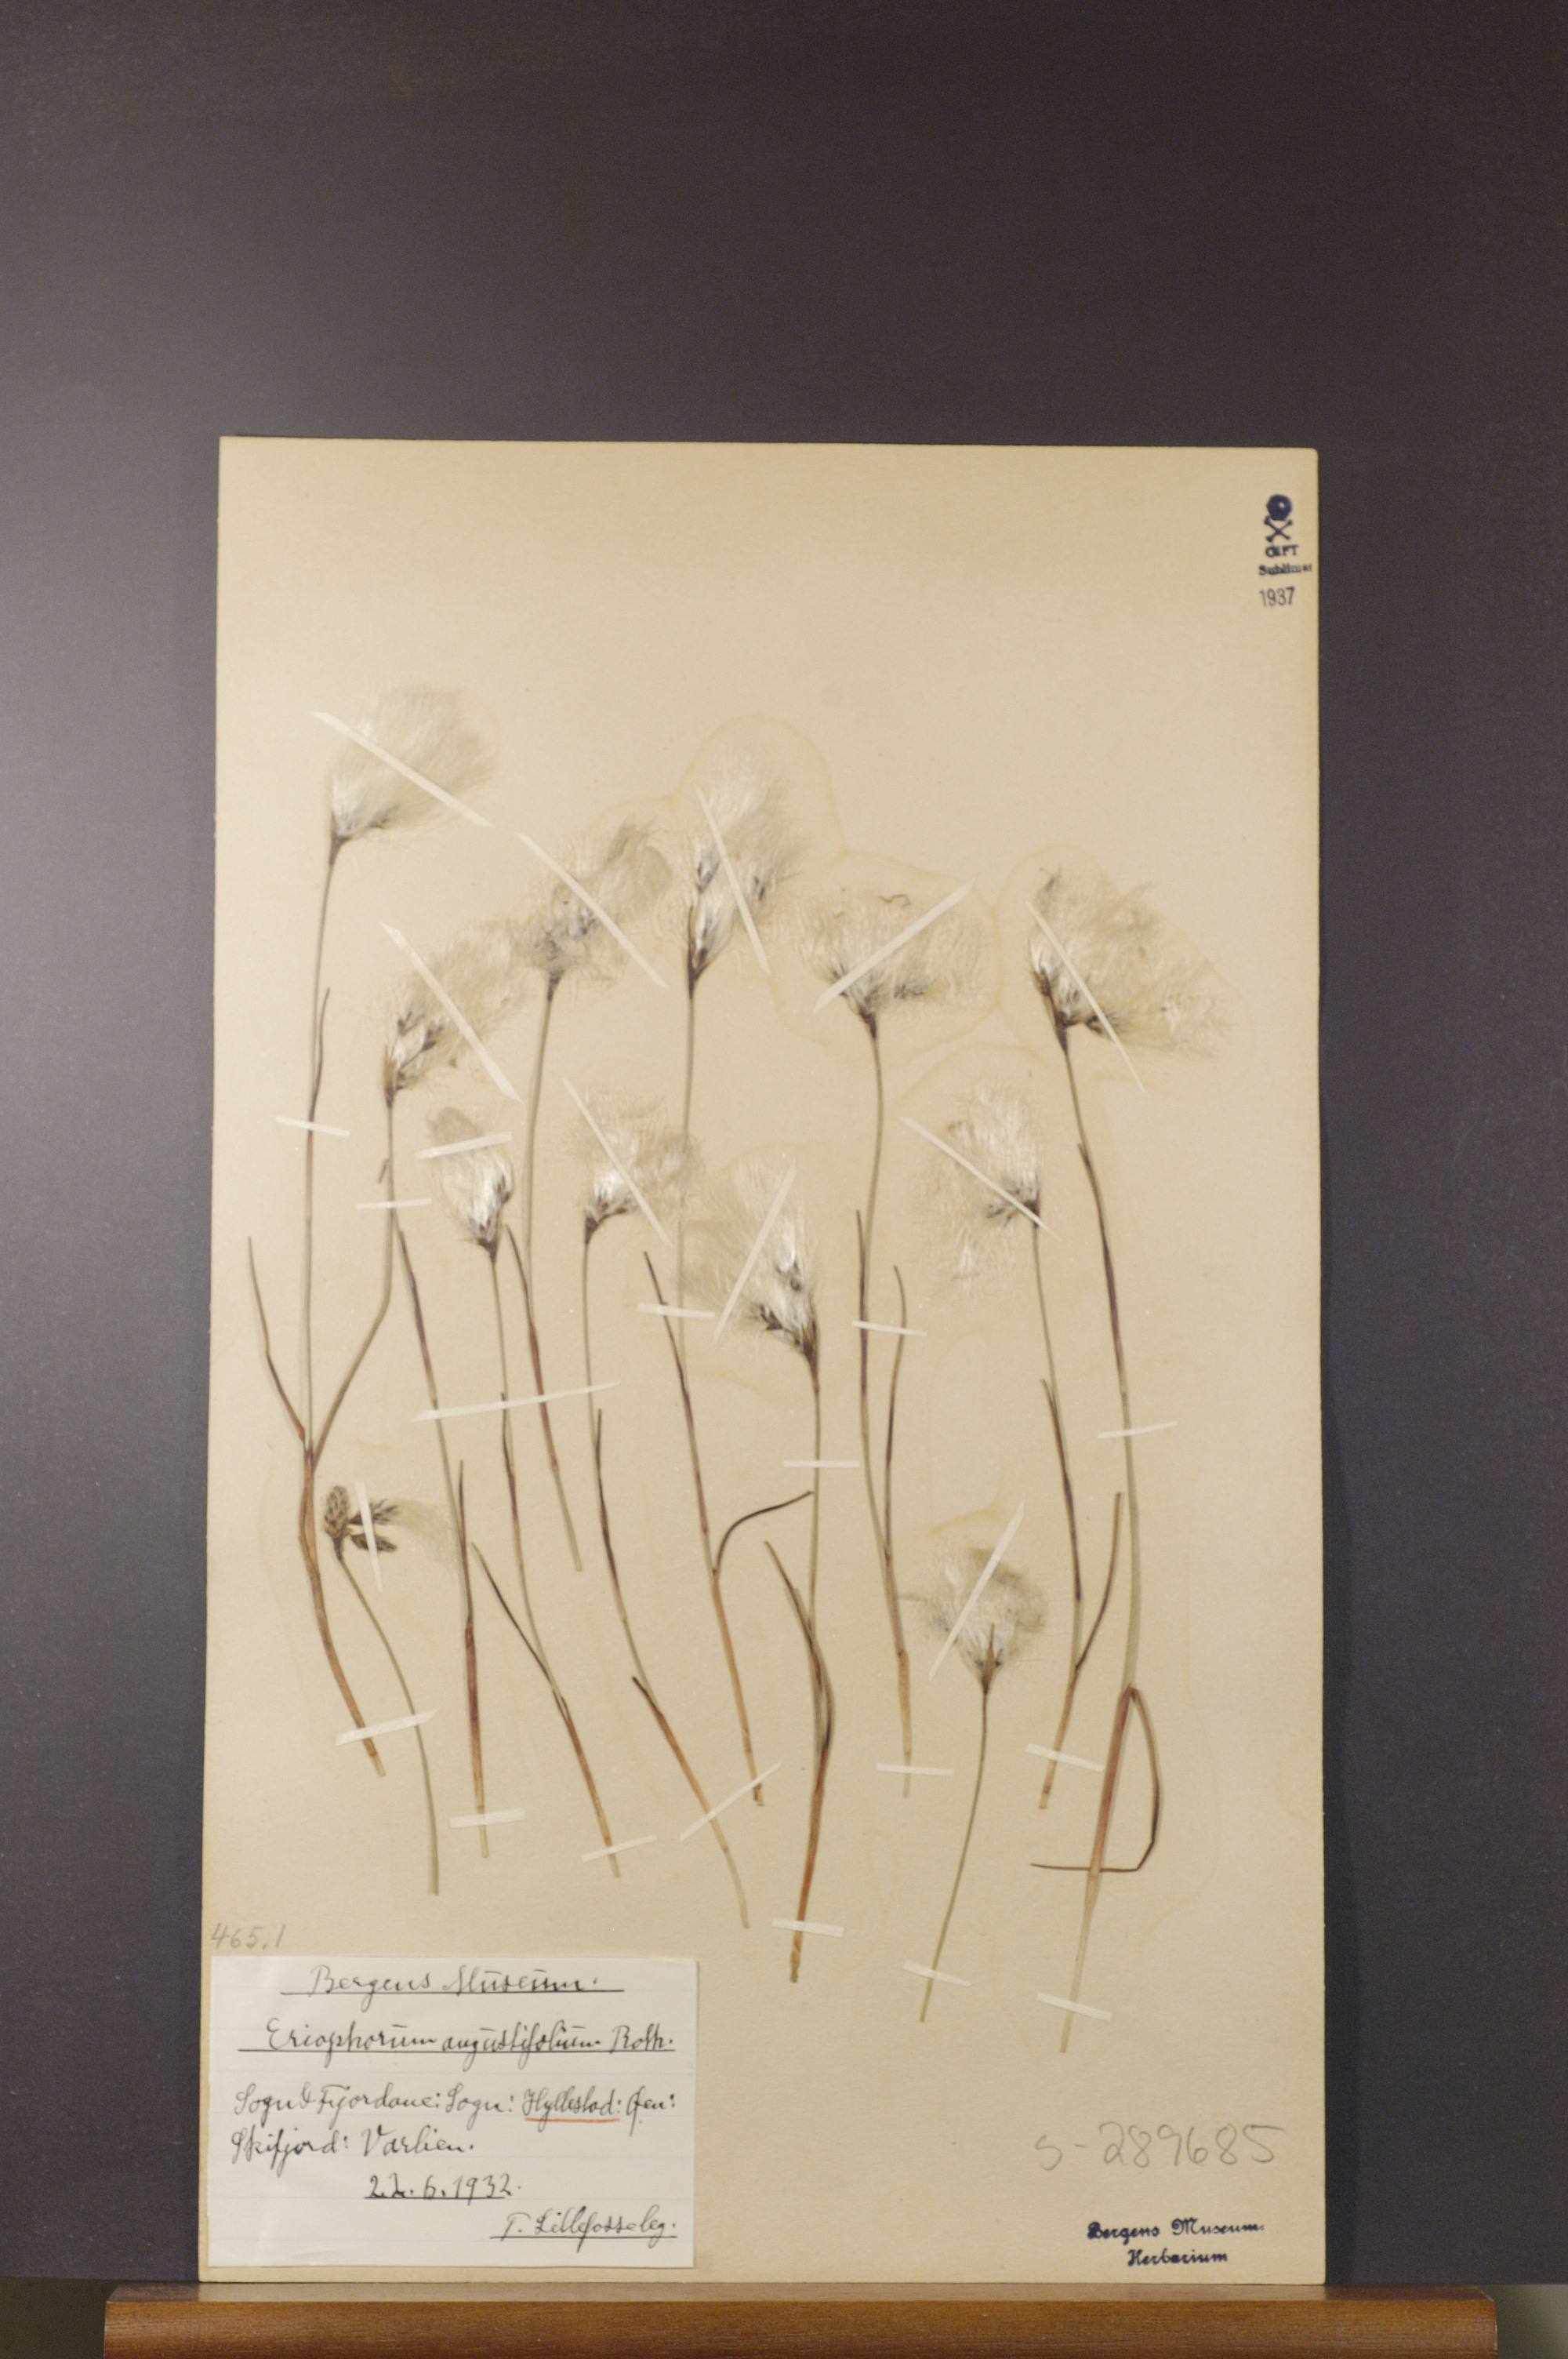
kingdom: Plantae
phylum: Tracheophyta
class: Liliopsida
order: Poales
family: Cyperaceae
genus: Eriophorum
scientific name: Eriophorum angustifolium
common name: Common cottongrass
